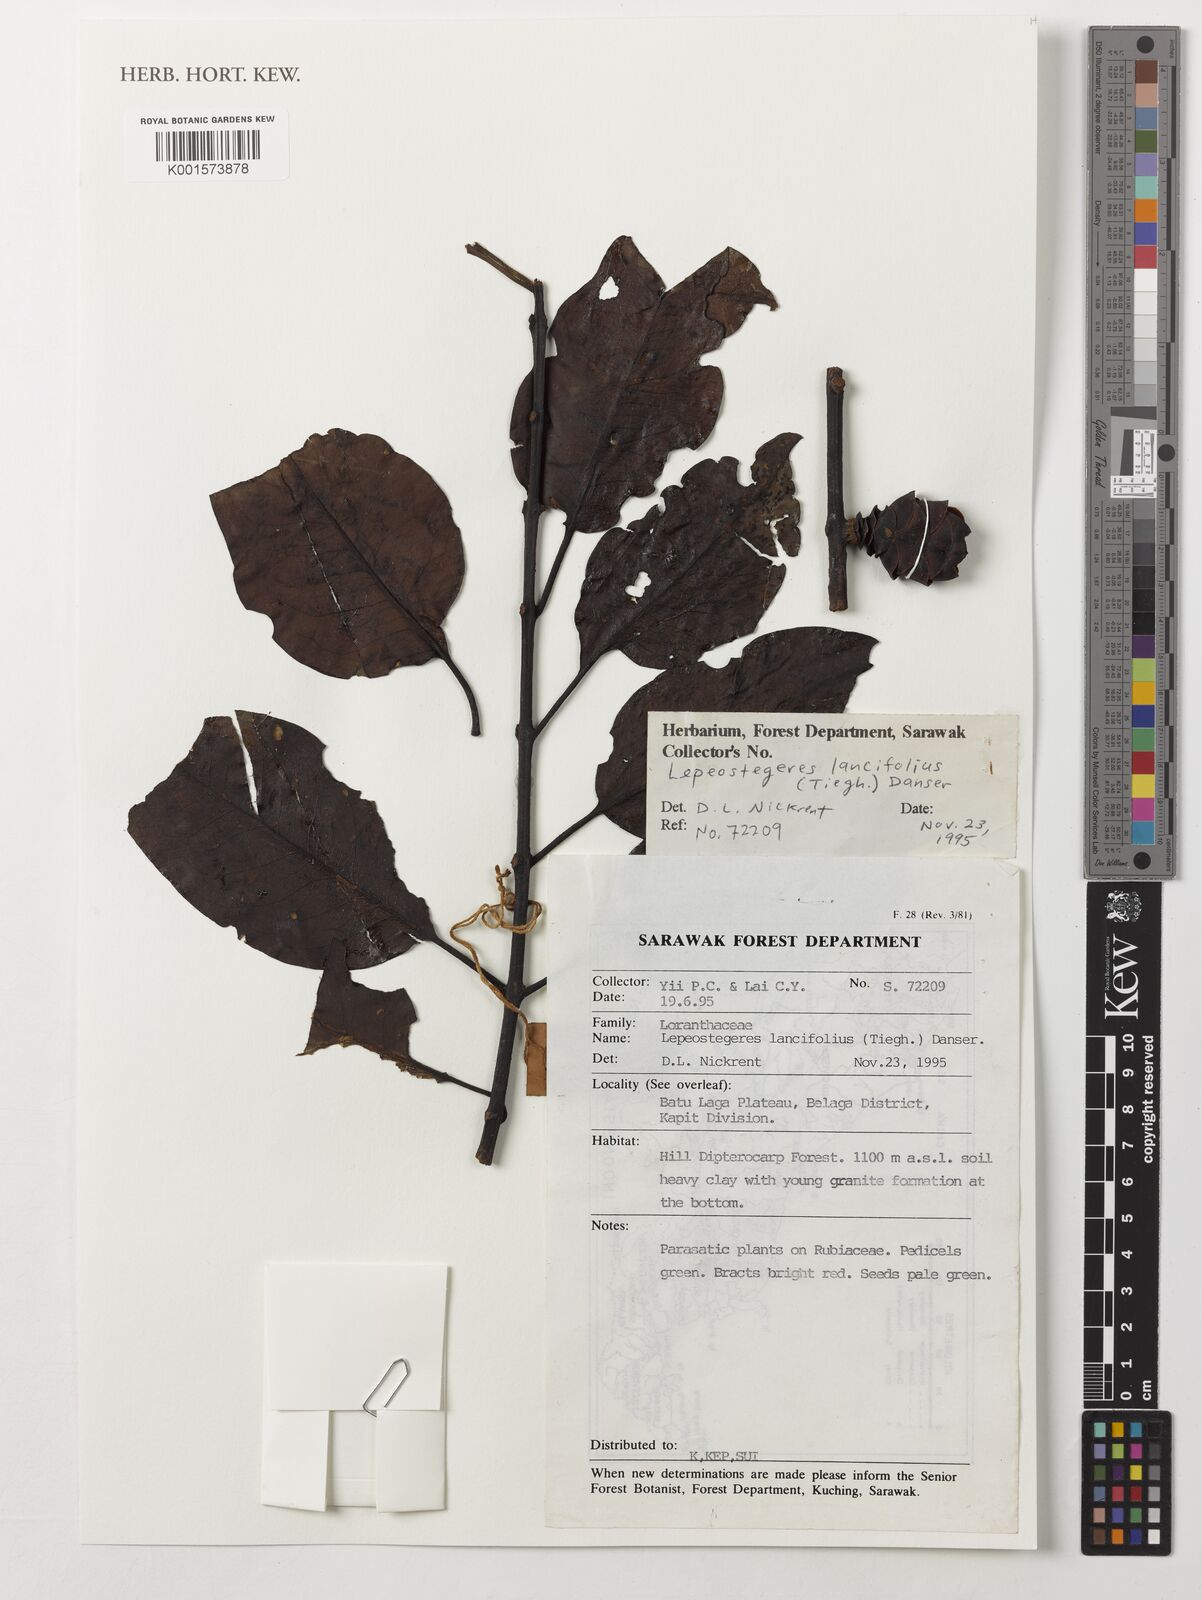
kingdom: Plantae
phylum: Tracheophyta
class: Magnoliopsida
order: Santalales
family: Loranthaceae
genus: Lepeostegeres
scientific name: Lepeostegeres lancifolius
